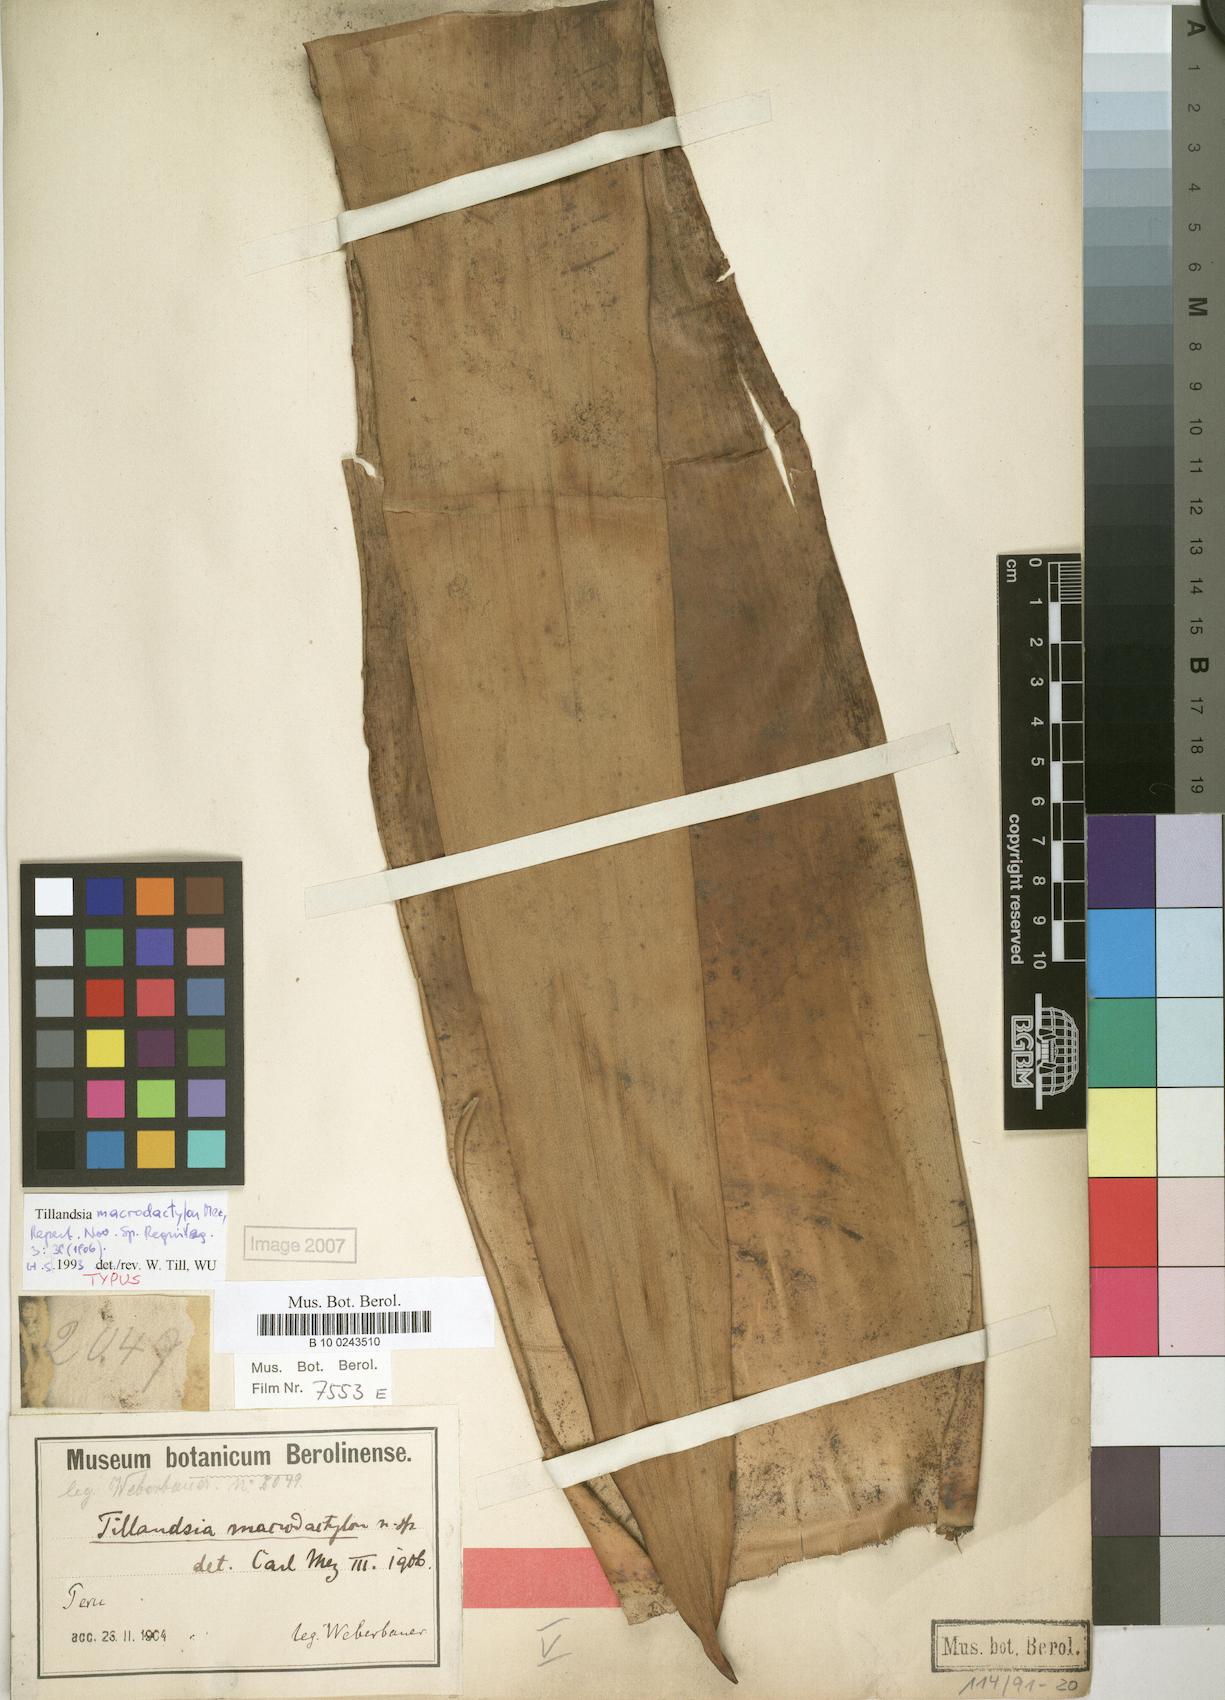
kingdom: Plantae
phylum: Tracheophyta
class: Liliopsida
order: Poales
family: Bromeliaceae
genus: Tillandsia
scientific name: Tillandsia macrodactylon
